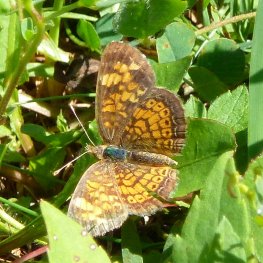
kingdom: Animalia
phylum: Arthropoda
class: Insecta
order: Lepidoptera
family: Nymphalidae
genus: Phyciodes
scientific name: Phyciodes tharos
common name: Pearl Crescent
